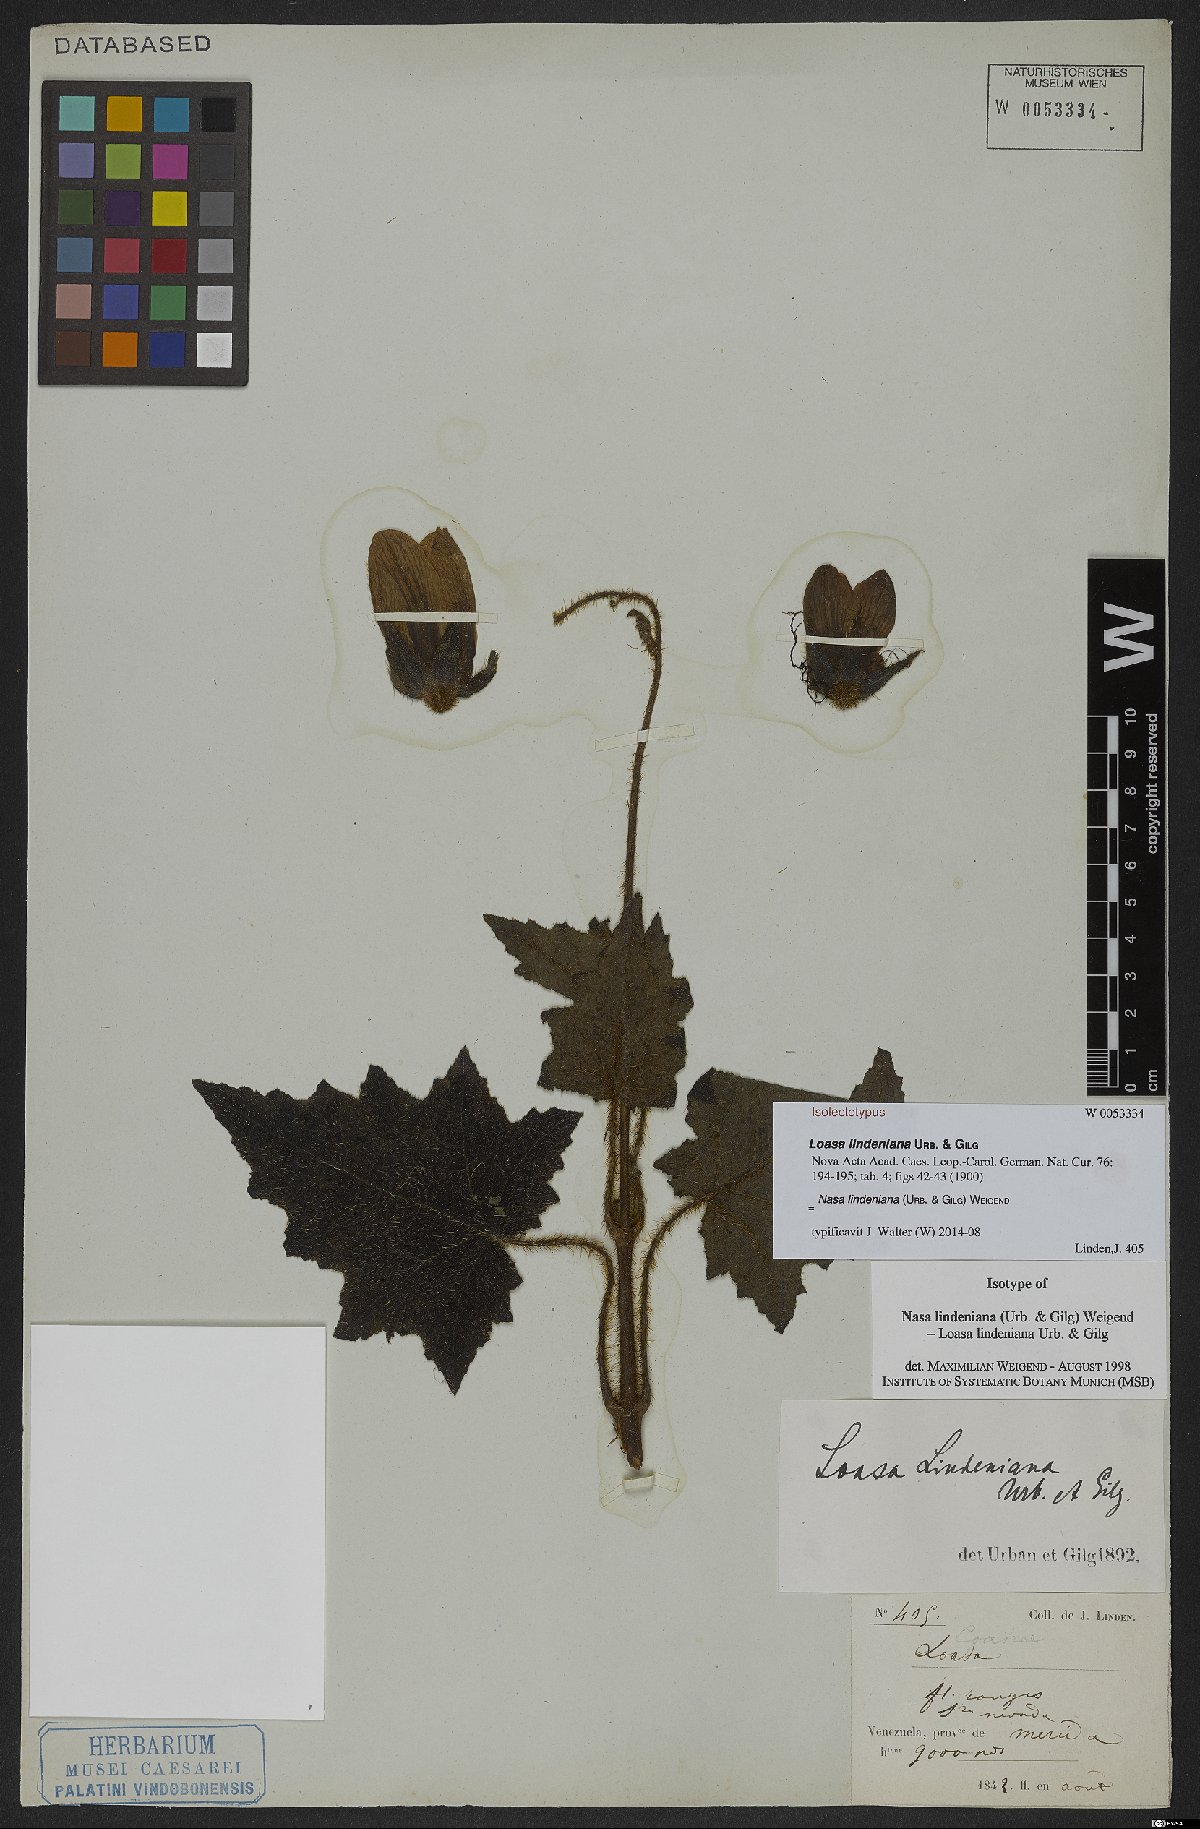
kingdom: Plantae
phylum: Tracheophyta
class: Magnoliopsida
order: Cornales
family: Loasaceae
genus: Nasa
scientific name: Nasa lindeniana
